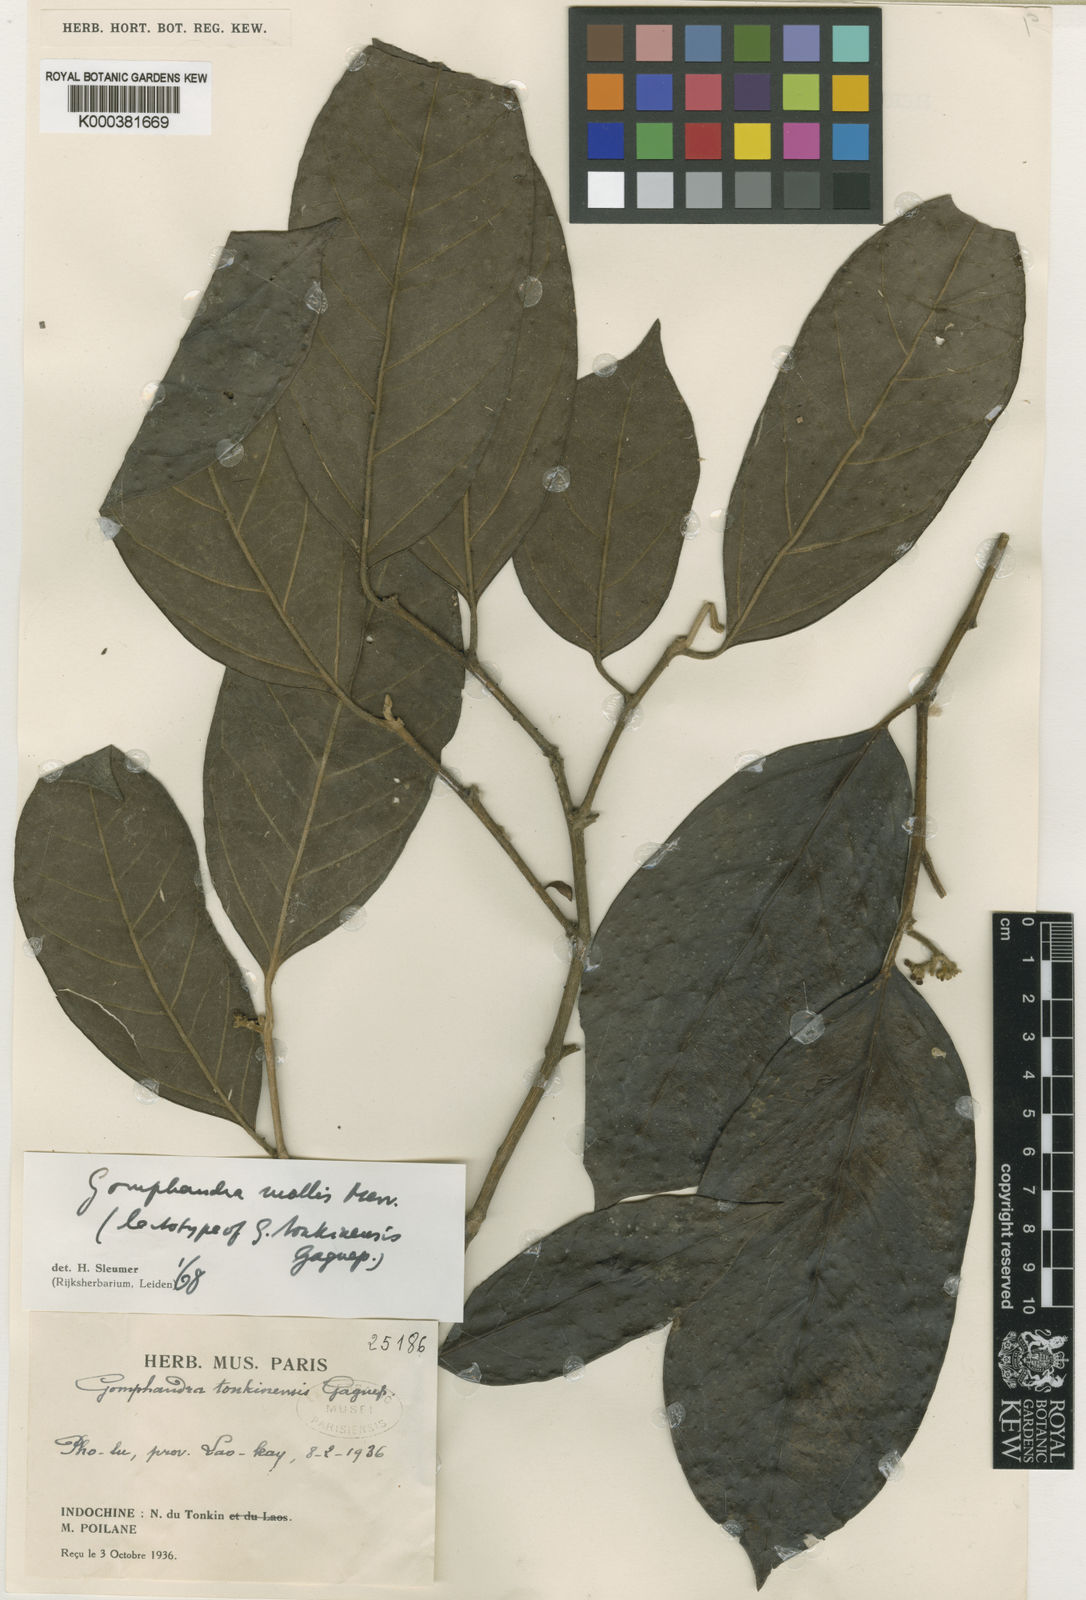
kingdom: Plantae
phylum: Tracheophyta
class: Magnoliopsida
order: Cardiopteridales
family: Stemonuraceae
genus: Gomphandra
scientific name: Gomphandra mollis
